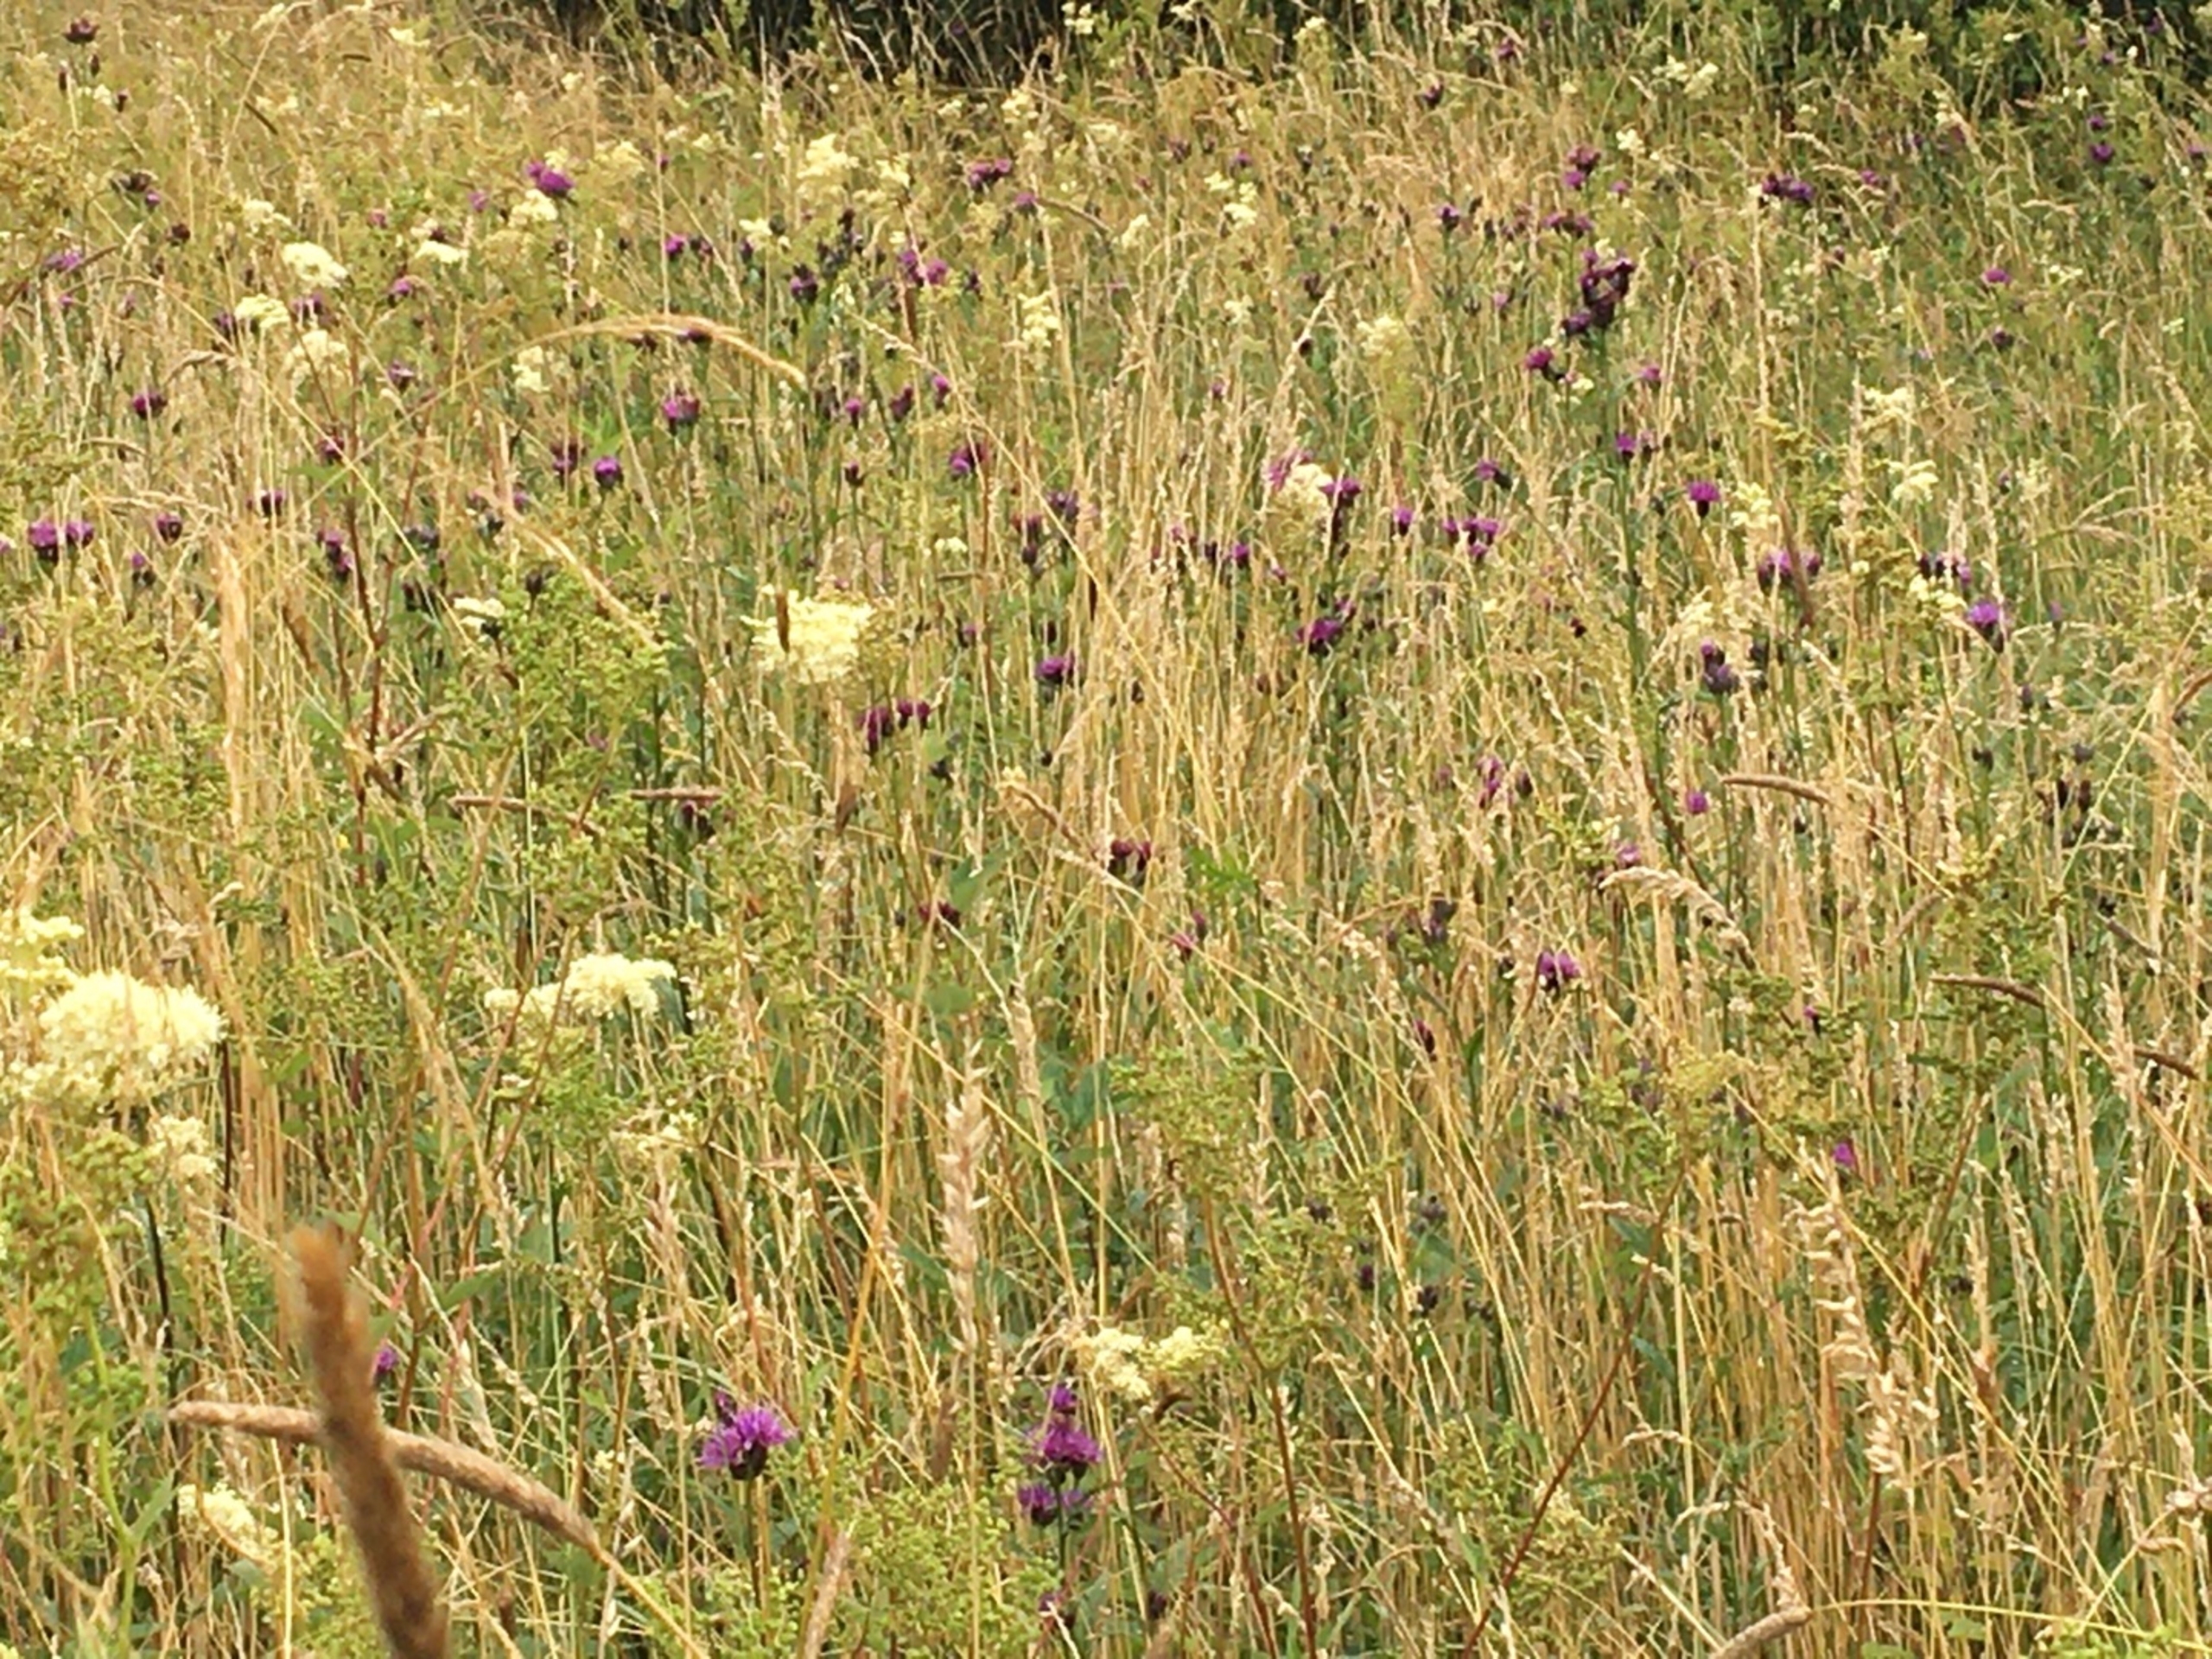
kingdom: Plantae
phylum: Tracheophyta
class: Magnoliopsida
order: Asterales
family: Asteraceae
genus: Serratula
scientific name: Serratula tinctoria
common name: Eng-skær
